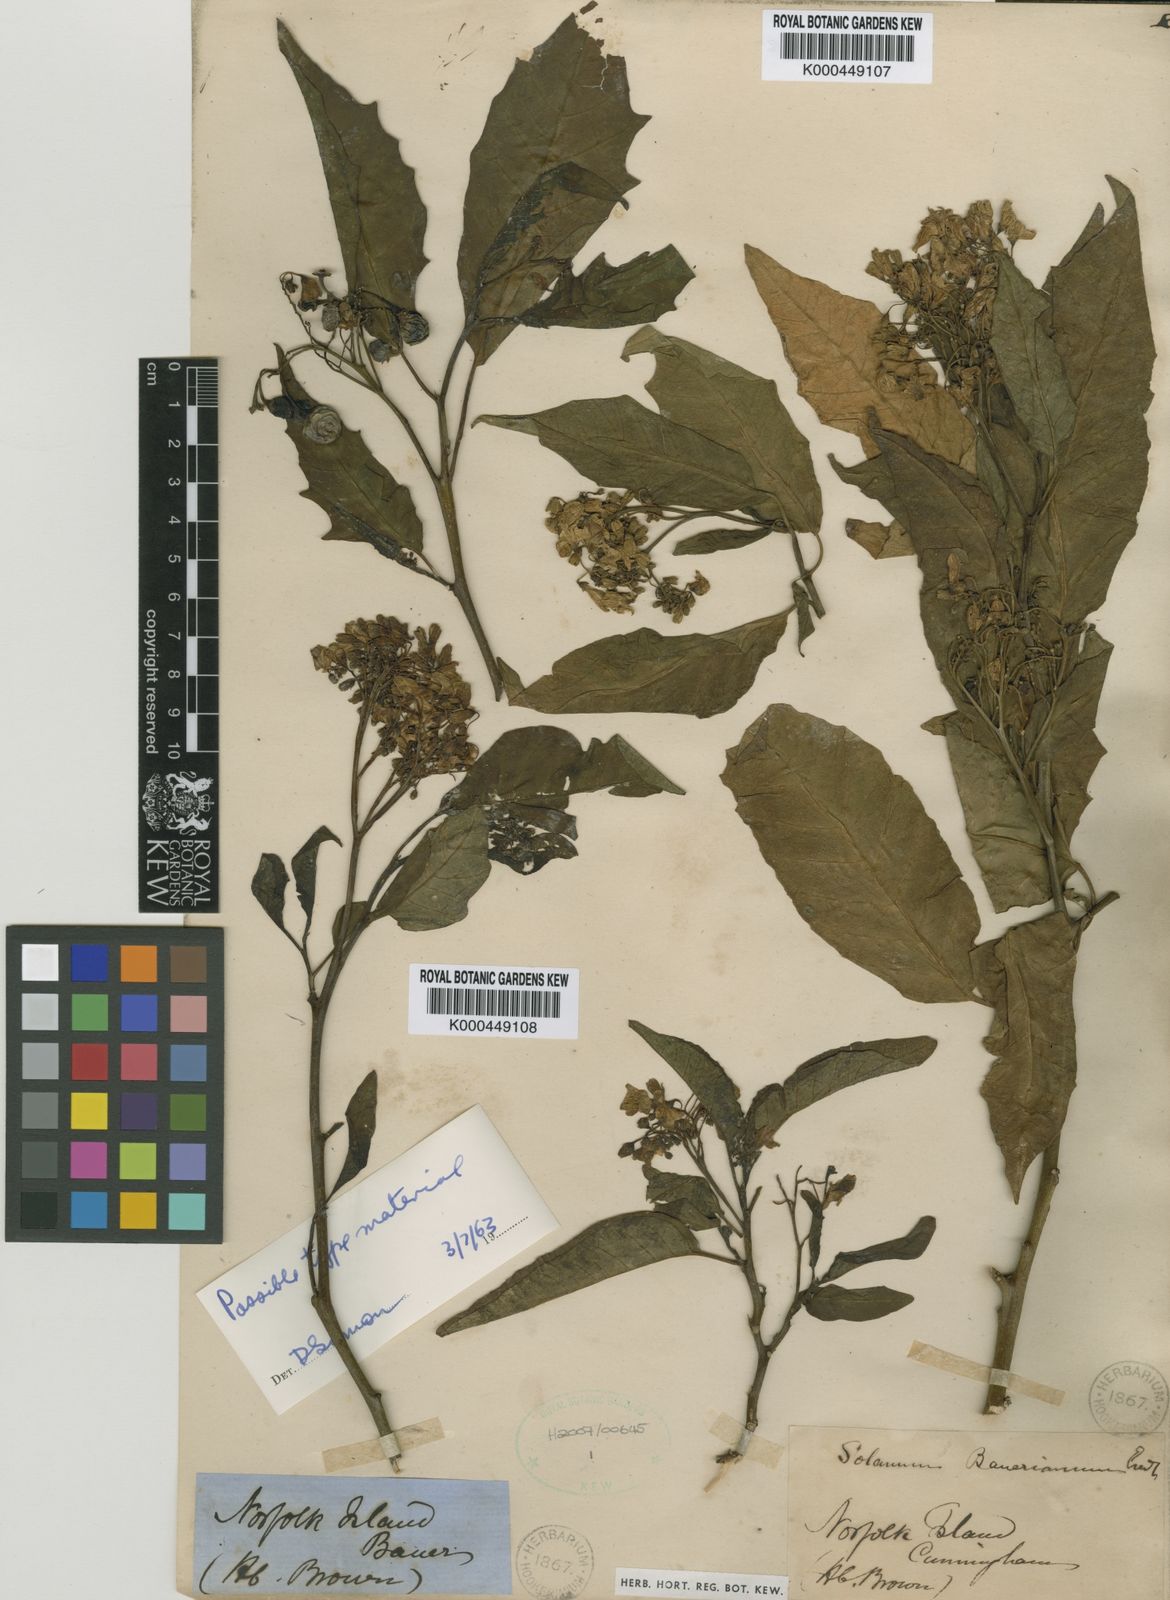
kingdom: Plantae
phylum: Tracheophyta
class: Magnoliopsida
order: Solanales
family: Solanaceae
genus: Solanum
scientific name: Solanum bauerianum
